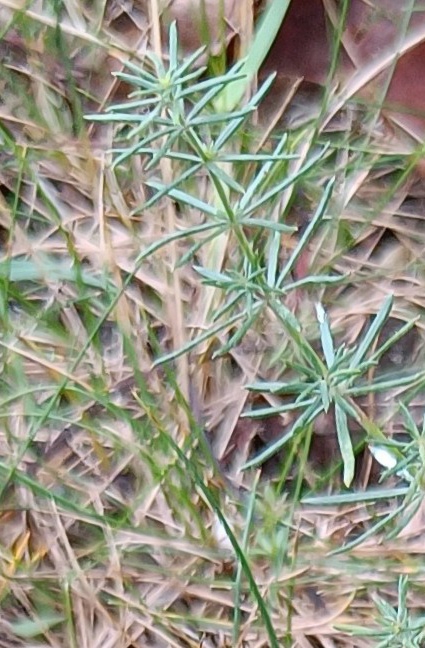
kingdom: Plantae
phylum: Tracheophyta
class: Magnoliopsida
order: Gentianales
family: Rubiaceae
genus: Galium
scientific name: Galium
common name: Snerreslægten
